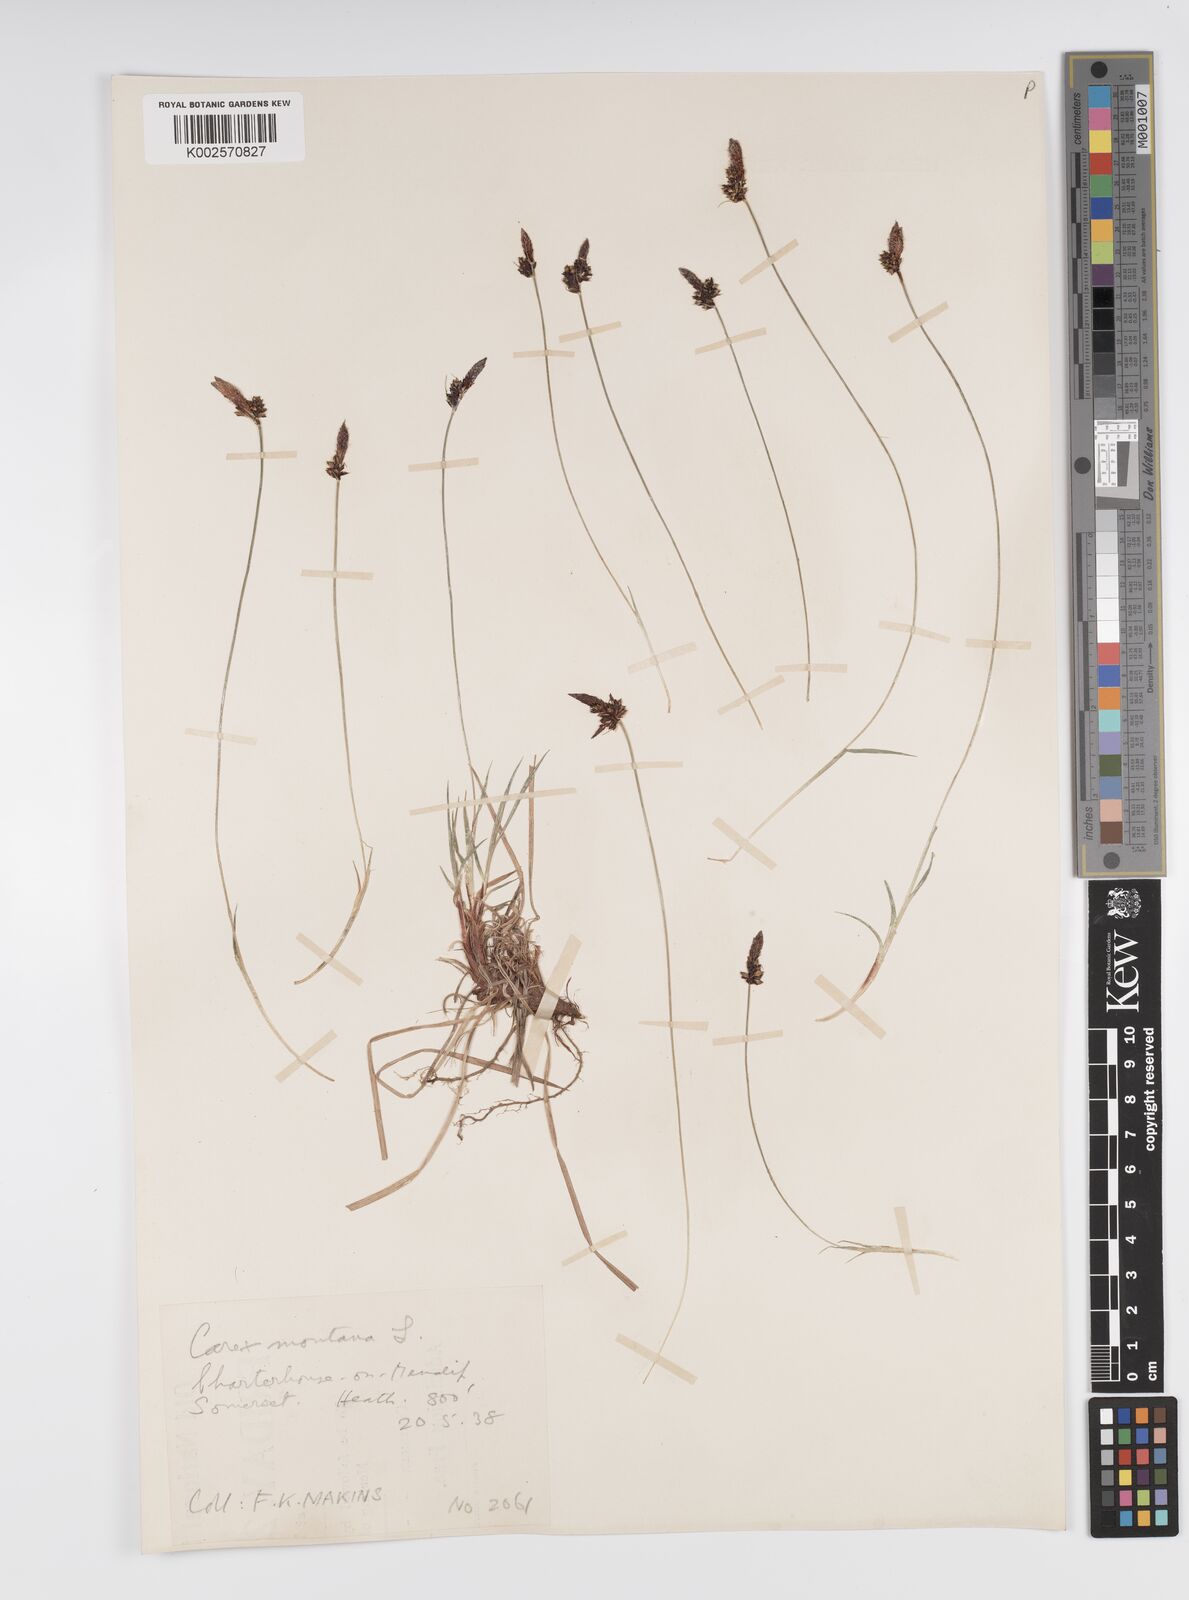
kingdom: Plantae
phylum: Tracheophyta
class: Liliopsida
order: Poales
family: Cyperaceae
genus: Carex
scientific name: Carex montana
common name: Soft-leaved sedge
